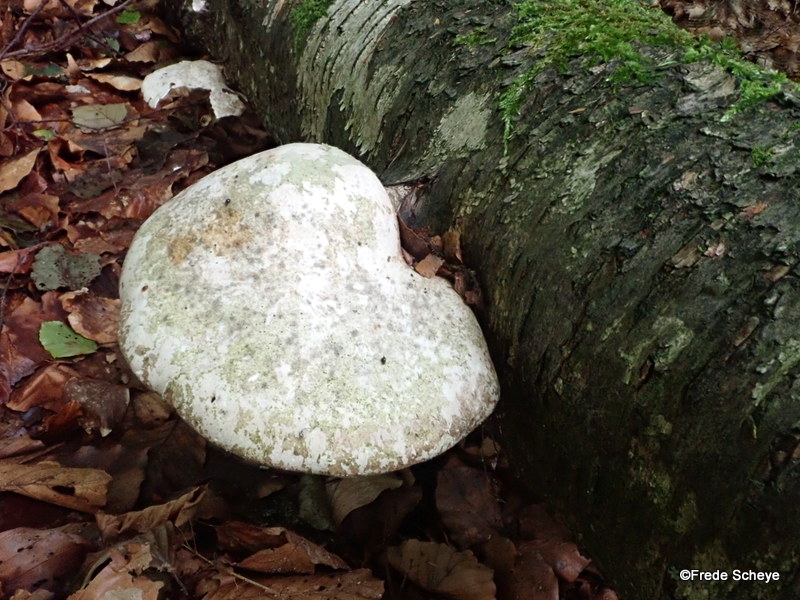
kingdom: Fungi
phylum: Basidiomycota
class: Agaricomycetes
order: Polyporales
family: Fomitopsidaceae
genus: Fomitopsis
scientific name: Fomitopsis betulina
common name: birkeporesvamp
